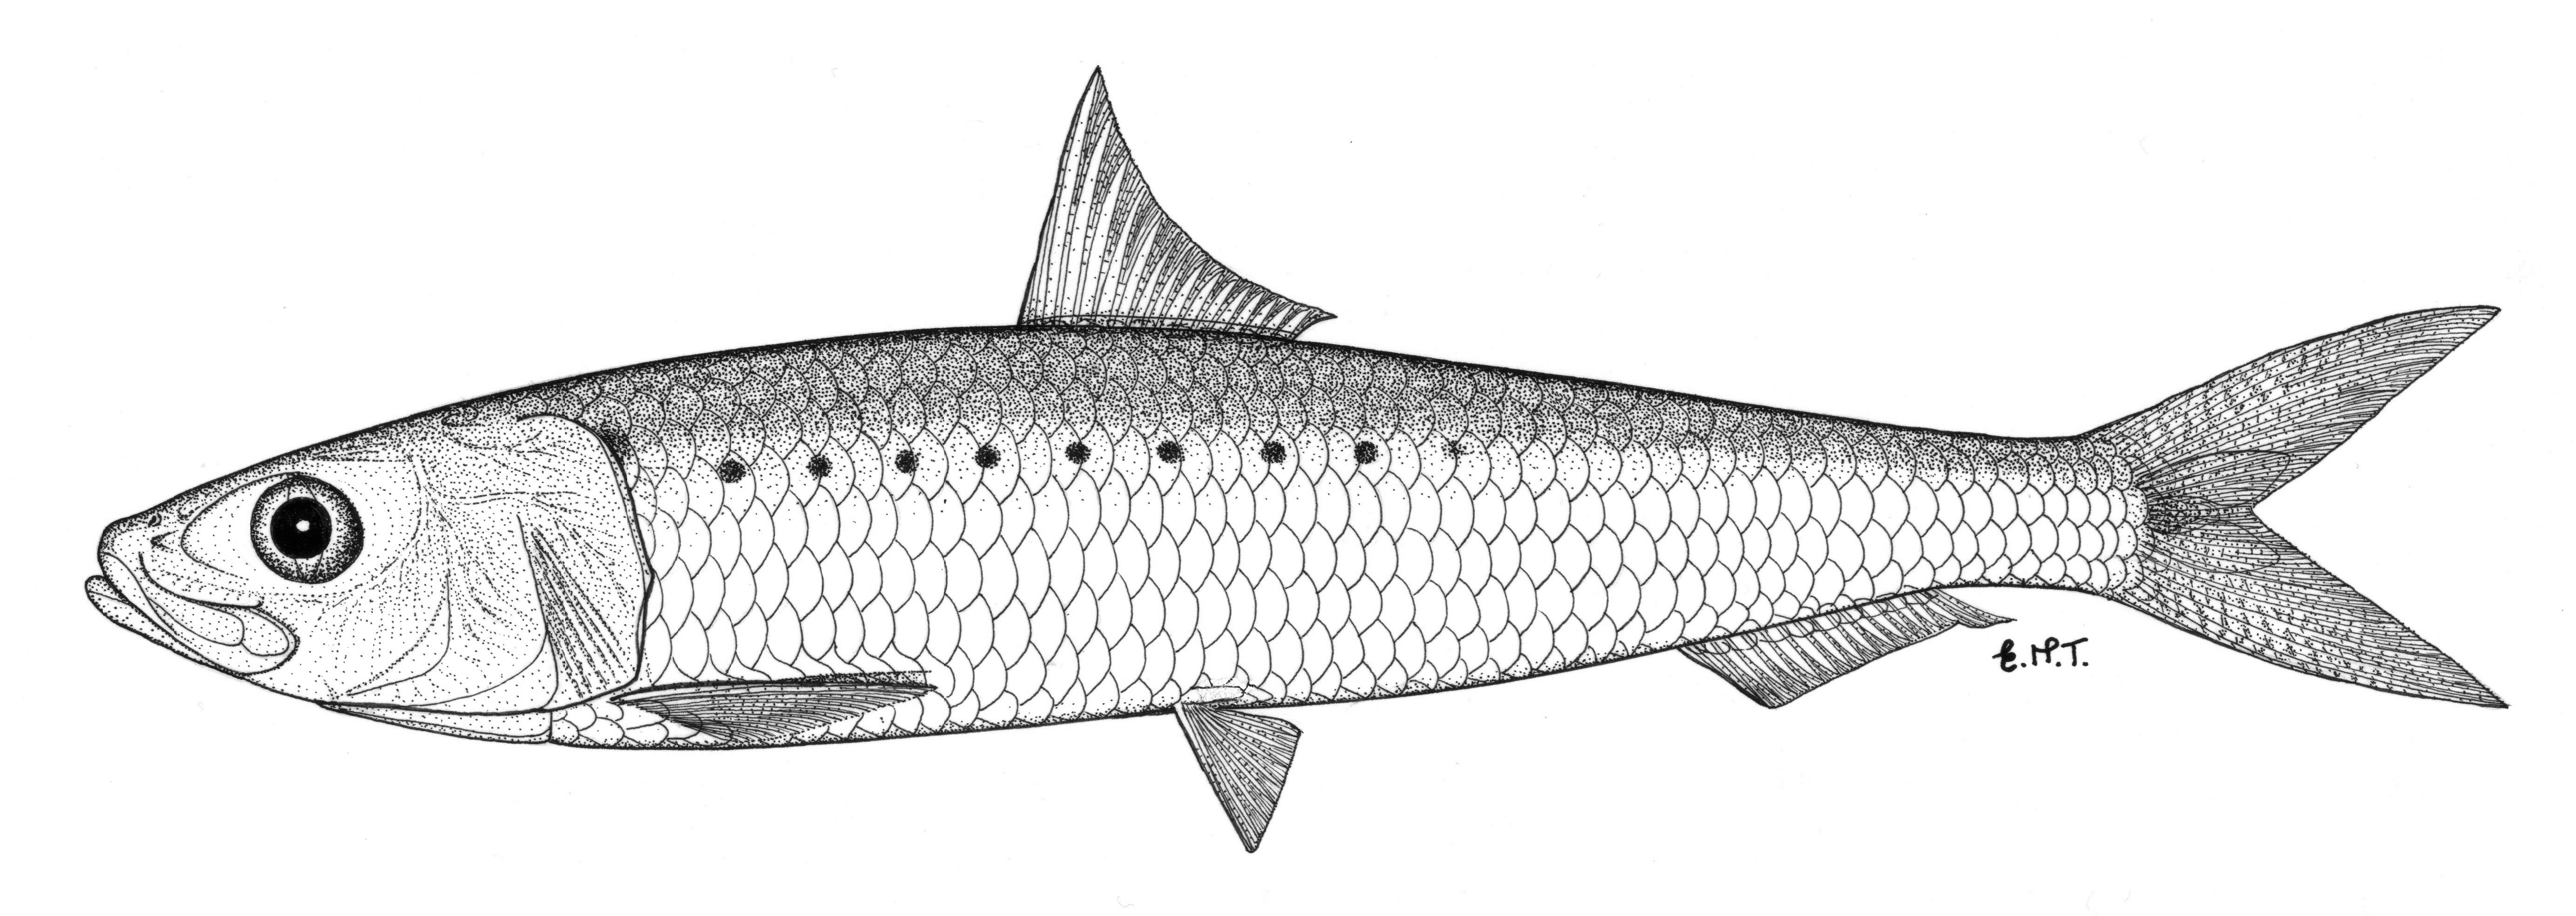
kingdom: Animalia
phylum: Chordata
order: Clupeiformes
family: Clupeidae
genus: Sardinops
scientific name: Sardinops sagax
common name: Pilchard
